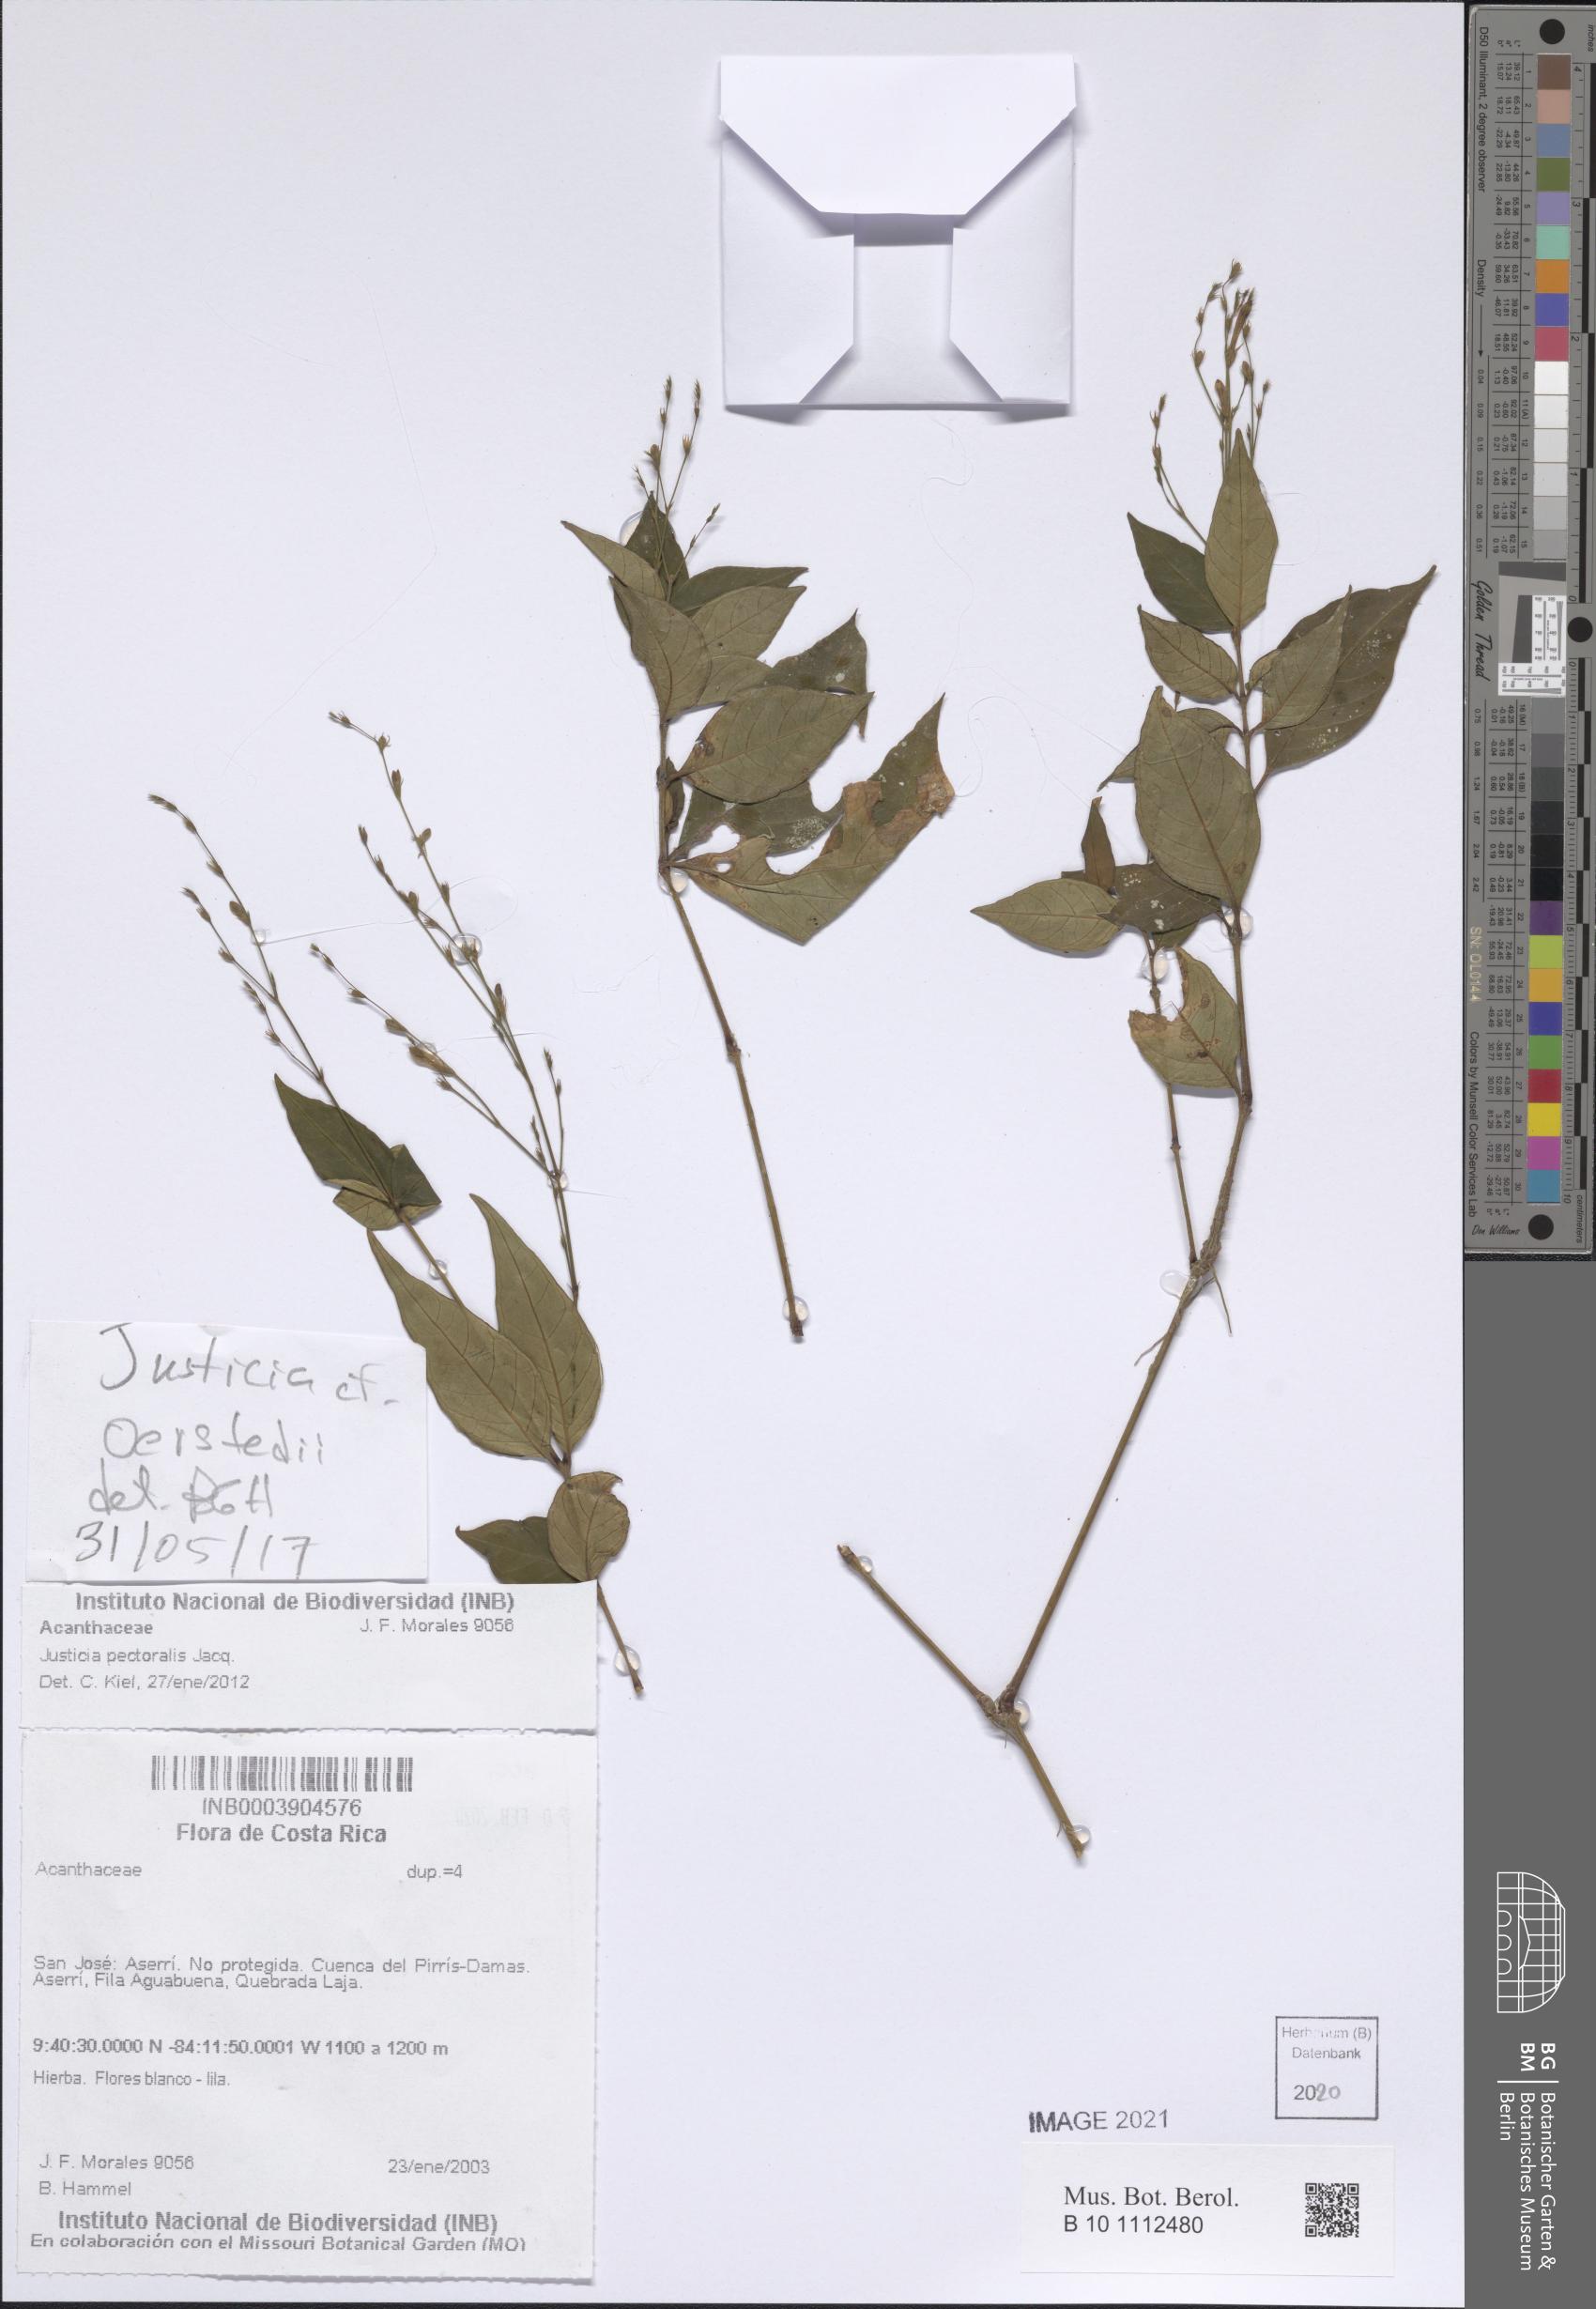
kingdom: Plantae
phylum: Tracheophyta
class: Magnoliopsida
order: Lamiales
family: Acanthaceae
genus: Dianthera
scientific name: Dianthera pectoralis
